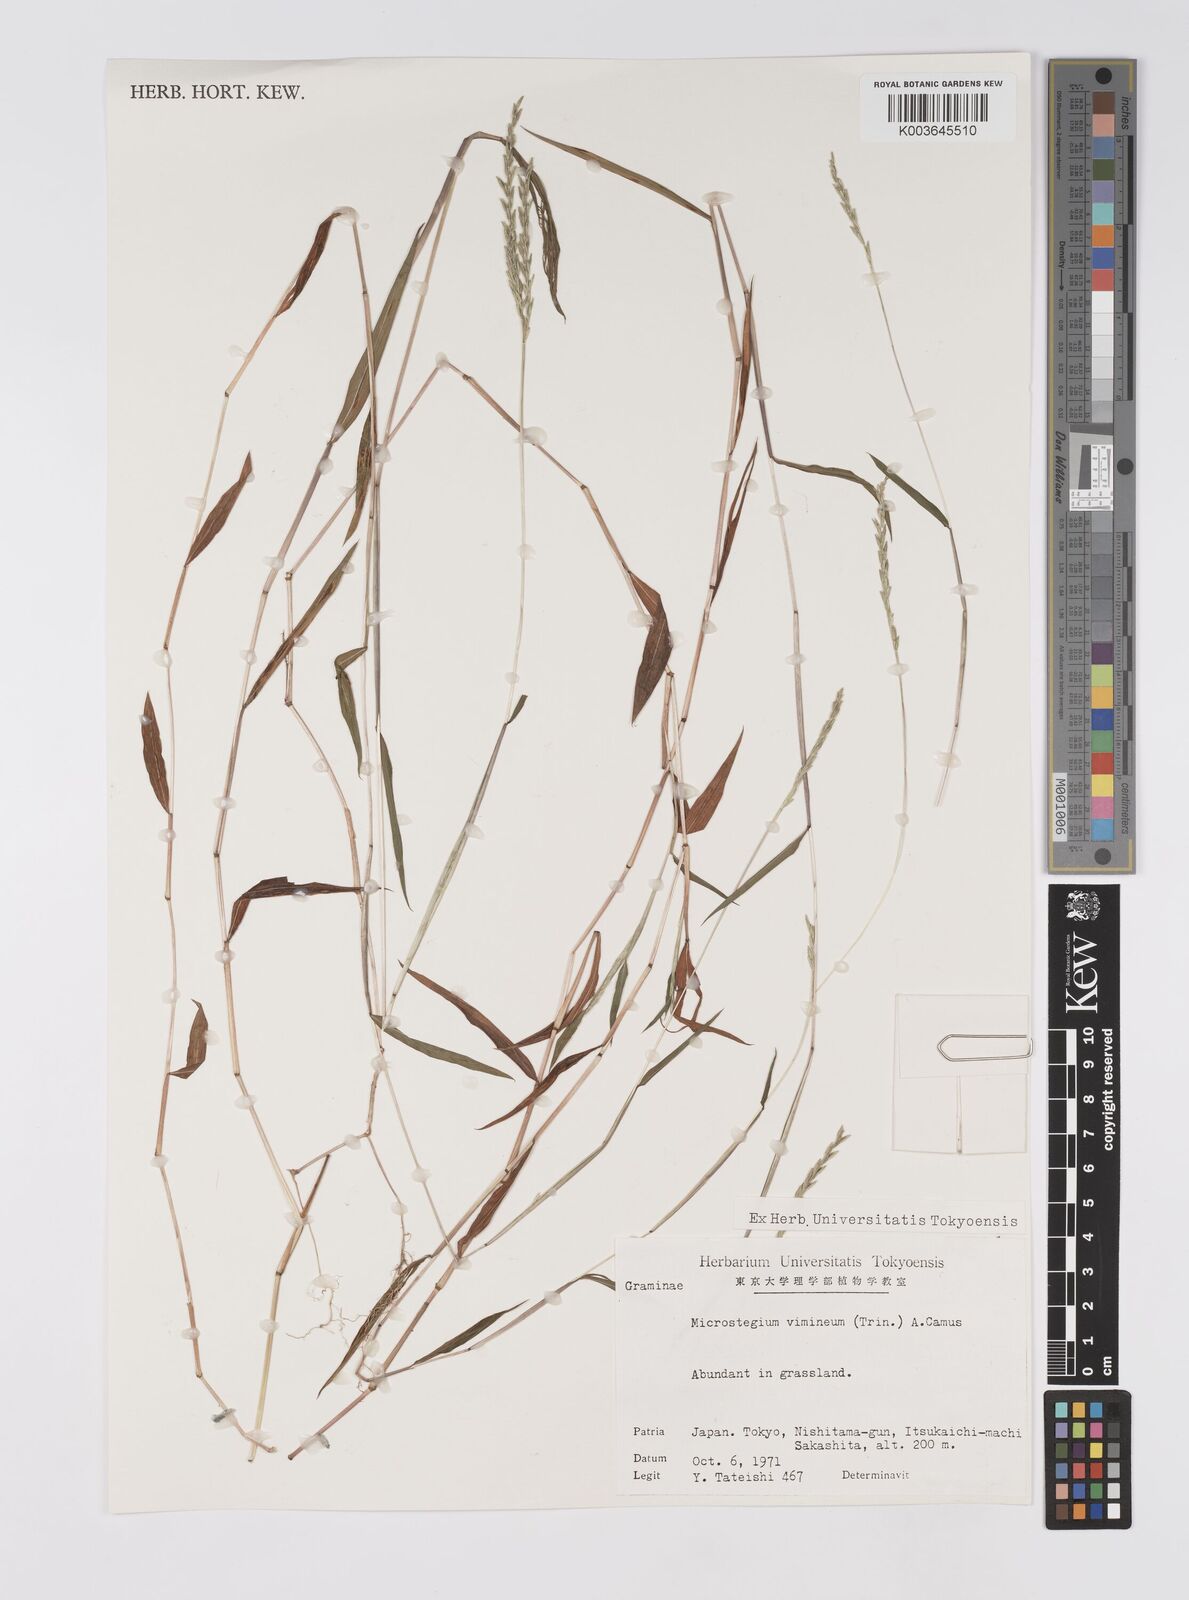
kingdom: Plantae
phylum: Tracheophyta
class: Liliopsida
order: Poales
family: Poaceae
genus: Microstegium
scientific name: Microstegium vimineum
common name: Japanese stiltgrass
